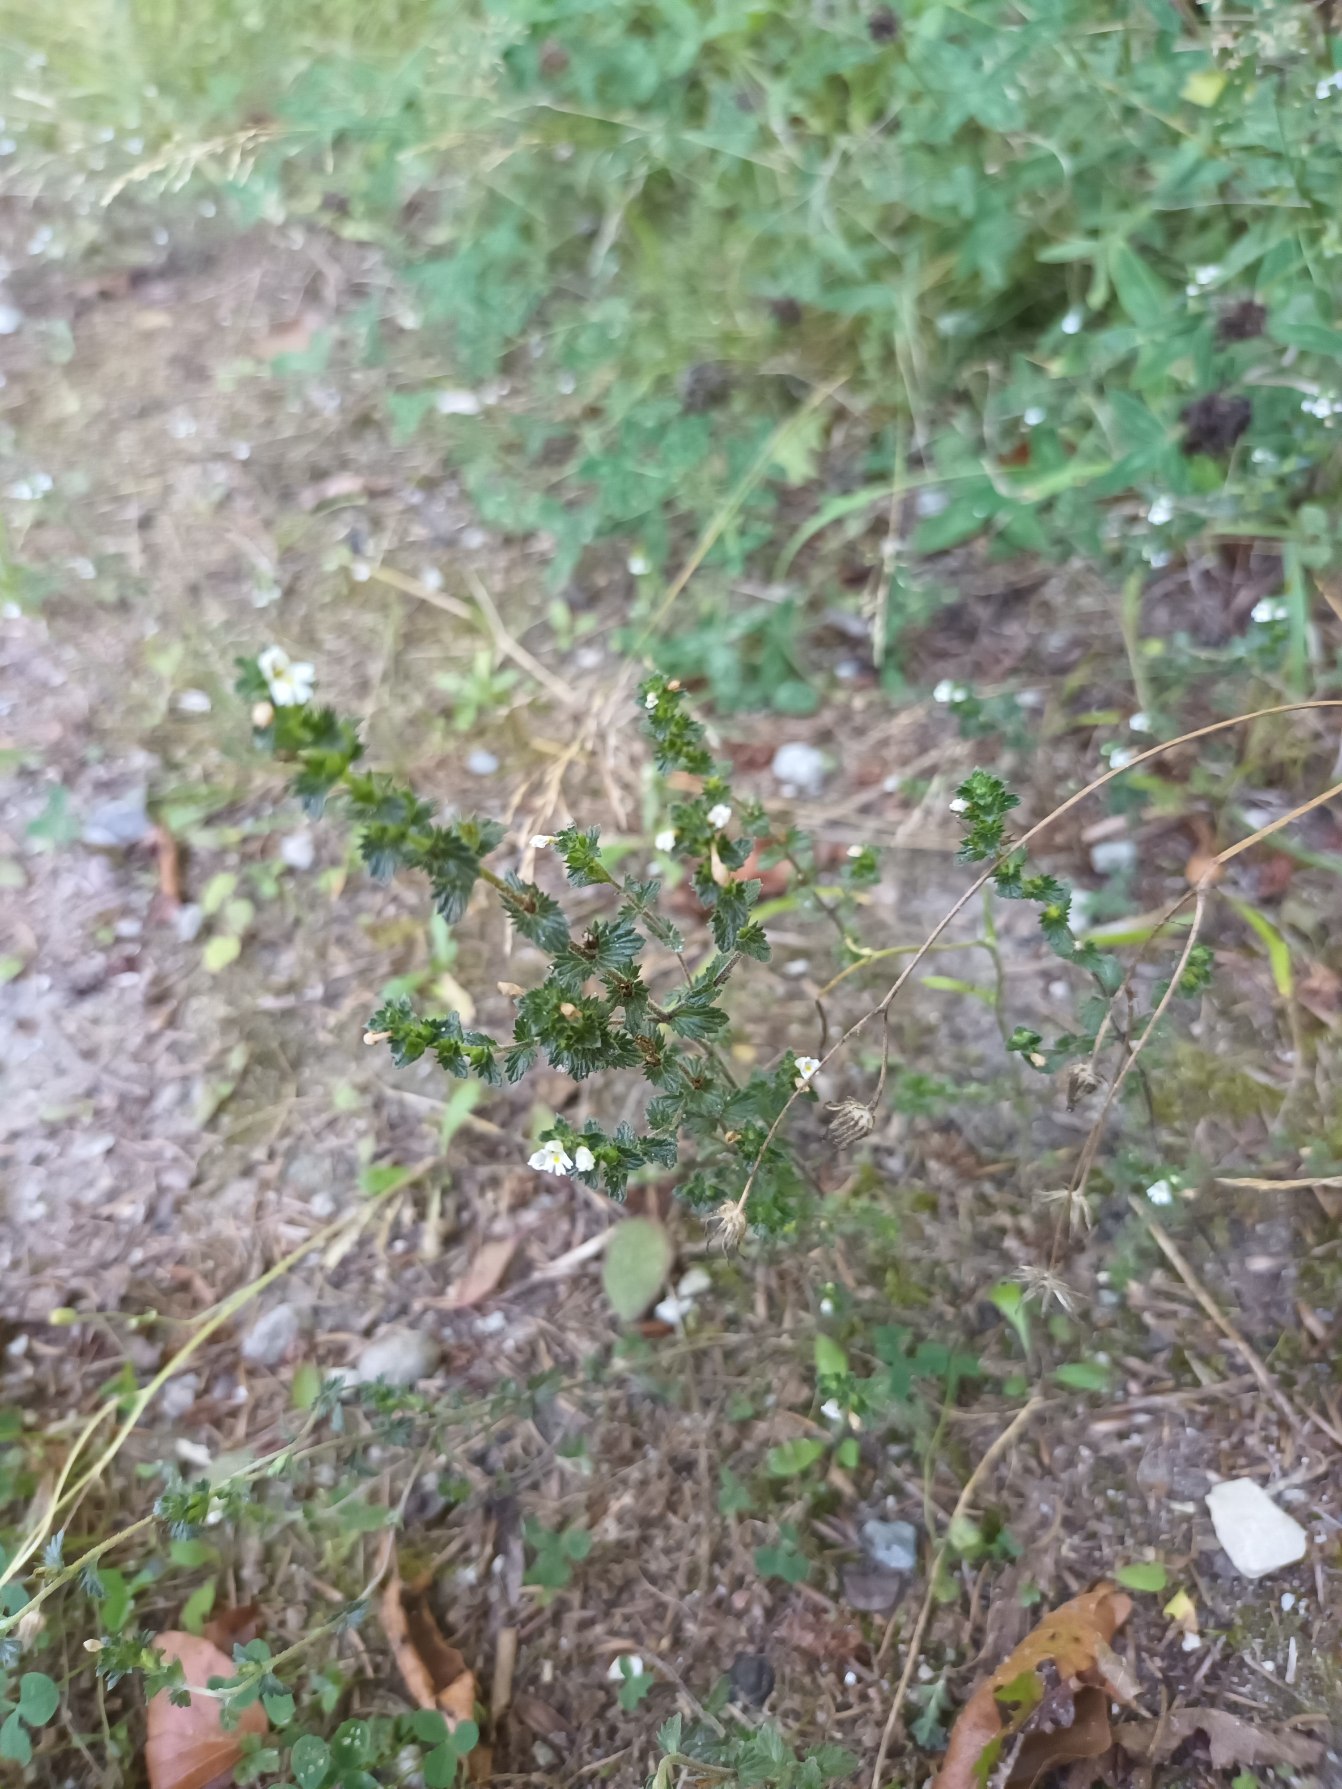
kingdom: Plantae
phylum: Tracheophyta
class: Magnoliopsida
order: Lamiales
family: Orobanchaceae
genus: Euphrasia
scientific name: Euphrasia nemorosa
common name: Kort øjentrøst
